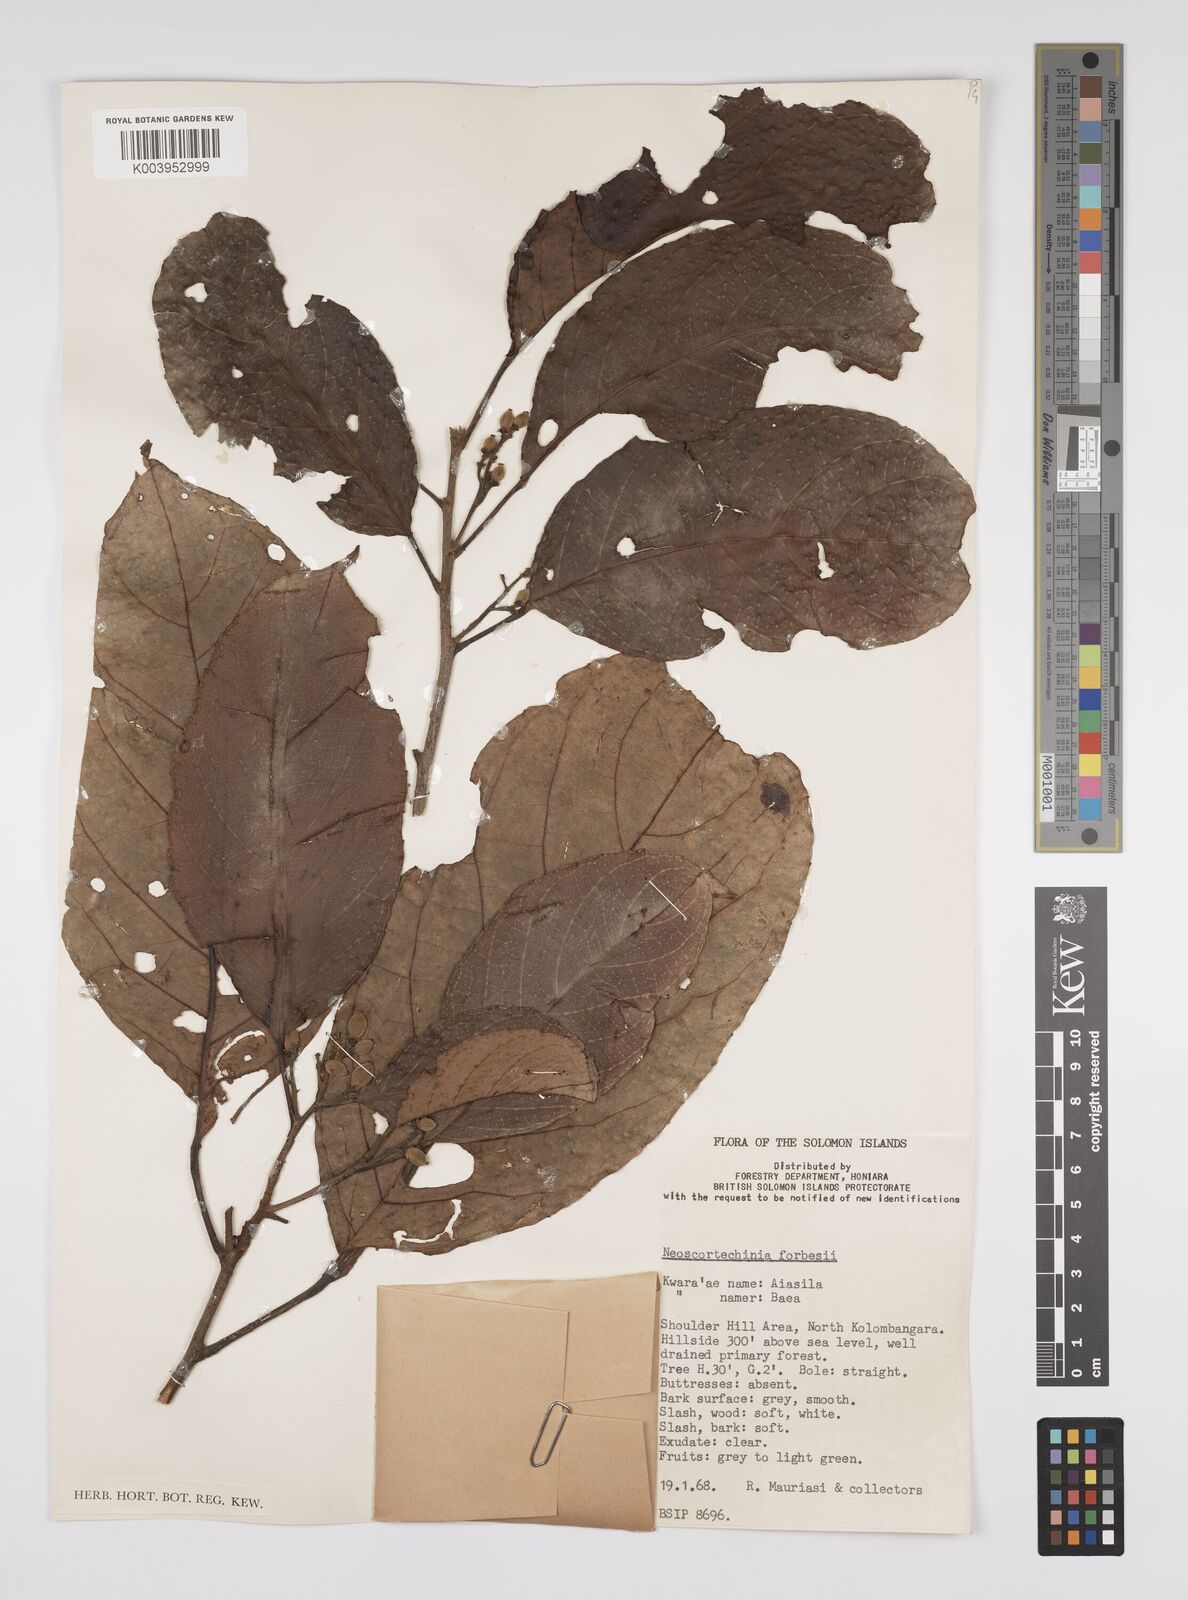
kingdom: Plantae
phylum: Tracheophyta
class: Magnoliopsida
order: Malpighiales
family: Euphorbiaceae
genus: Neoscortechinia
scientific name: Neoscortechinia forbesii
